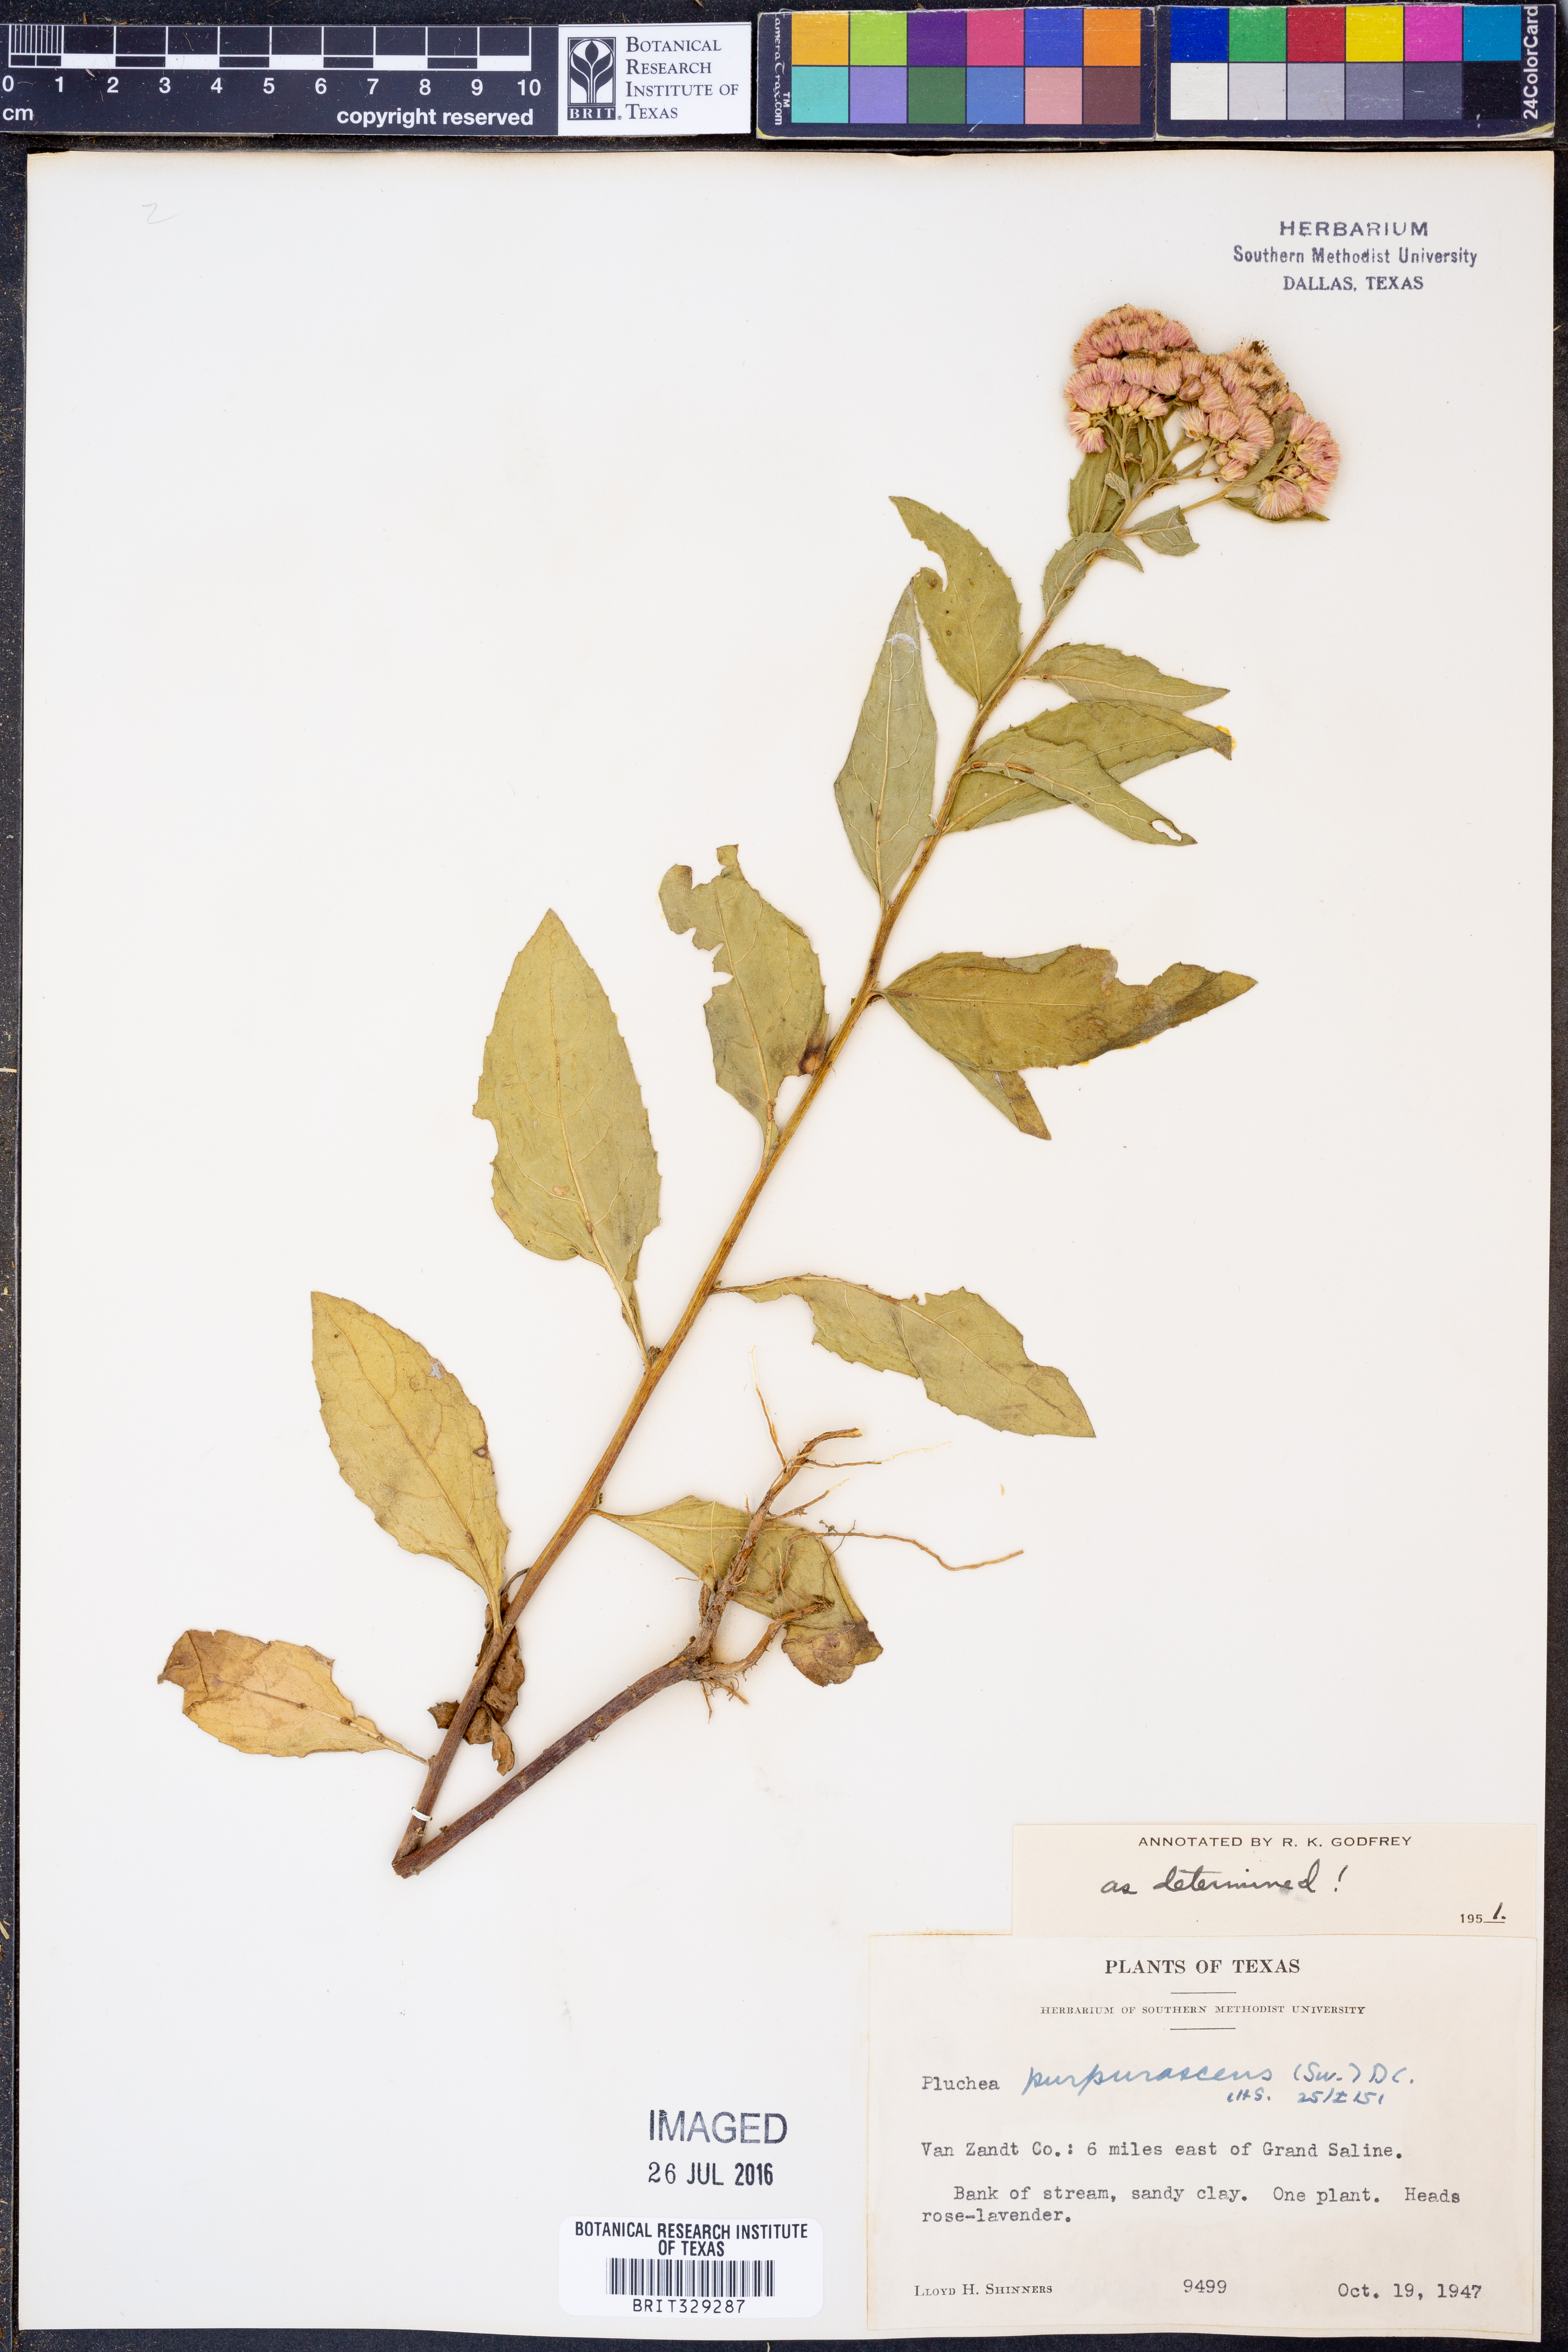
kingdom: Plantae
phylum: Tracheophyta
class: Magnoliopsida
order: Asterales
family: Asteraceae
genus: Pluchea
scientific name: Pluchea odorata
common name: Saltmarsh fleabane
